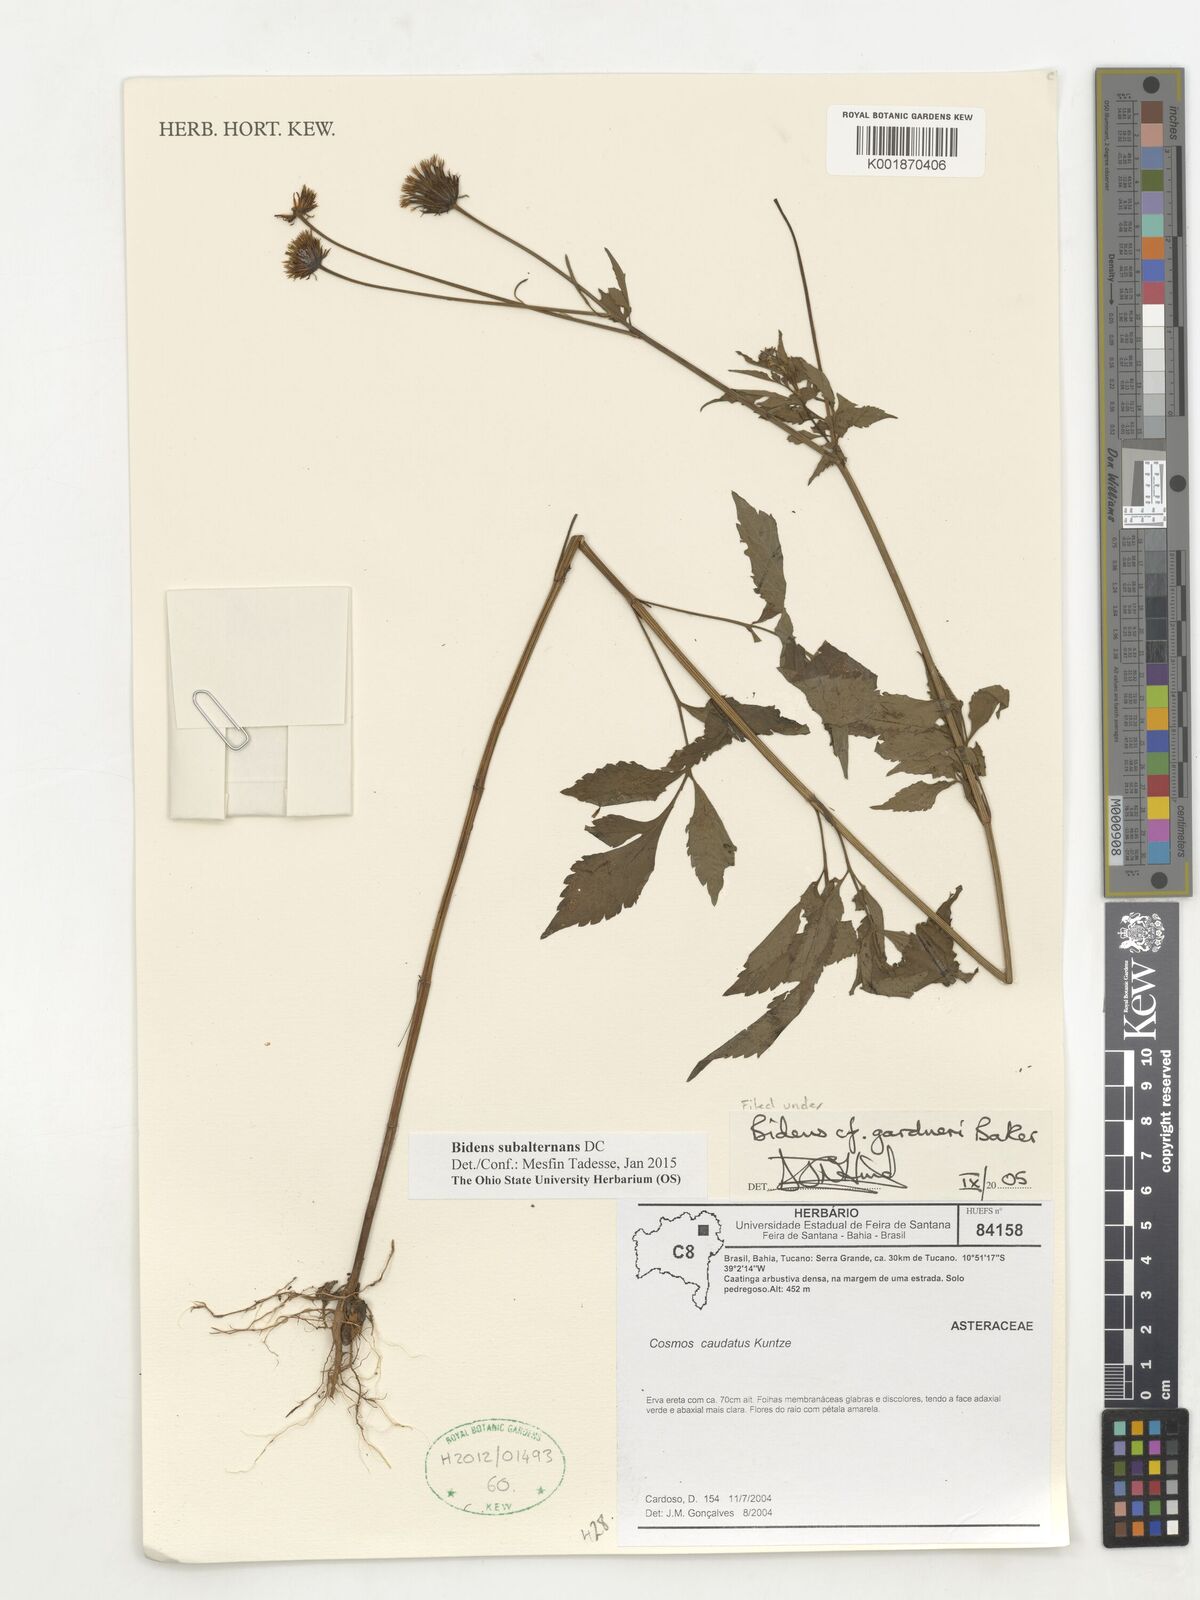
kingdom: Plantae
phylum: Tracheophyta
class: Magnoliopsida
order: Asterales
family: Asteraceae
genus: Bidens
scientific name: Bidens subalternans
